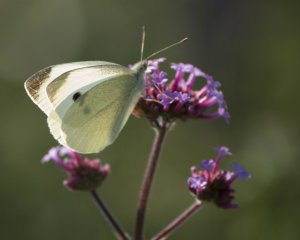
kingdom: Animalia
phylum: Arthropoda
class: Insecta
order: Lepidoptera
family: Pieridae
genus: Pieris
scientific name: Pieris rapae
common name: Cabbage White
